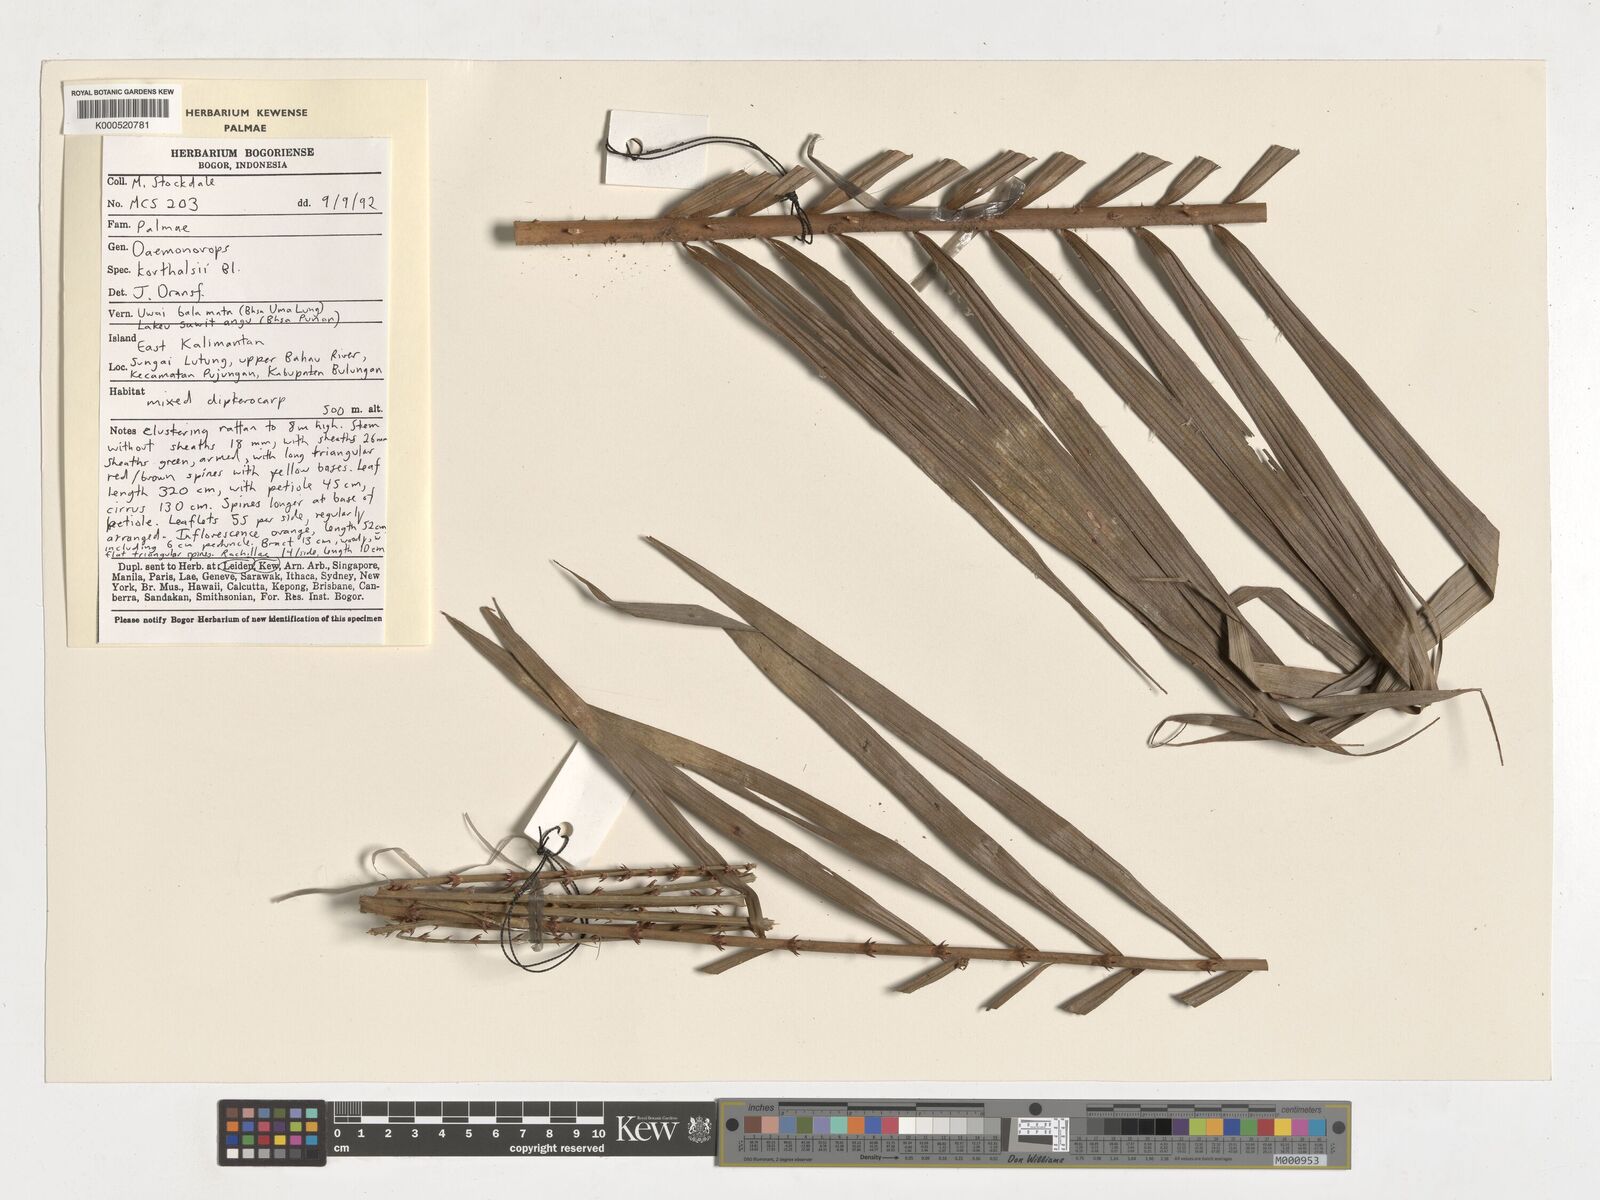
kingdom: Plantae
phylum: Tracheophyta
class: Liliopsida
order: Arecales
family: Arecaceae
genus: Calamus
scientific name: Calamus hirsutus
